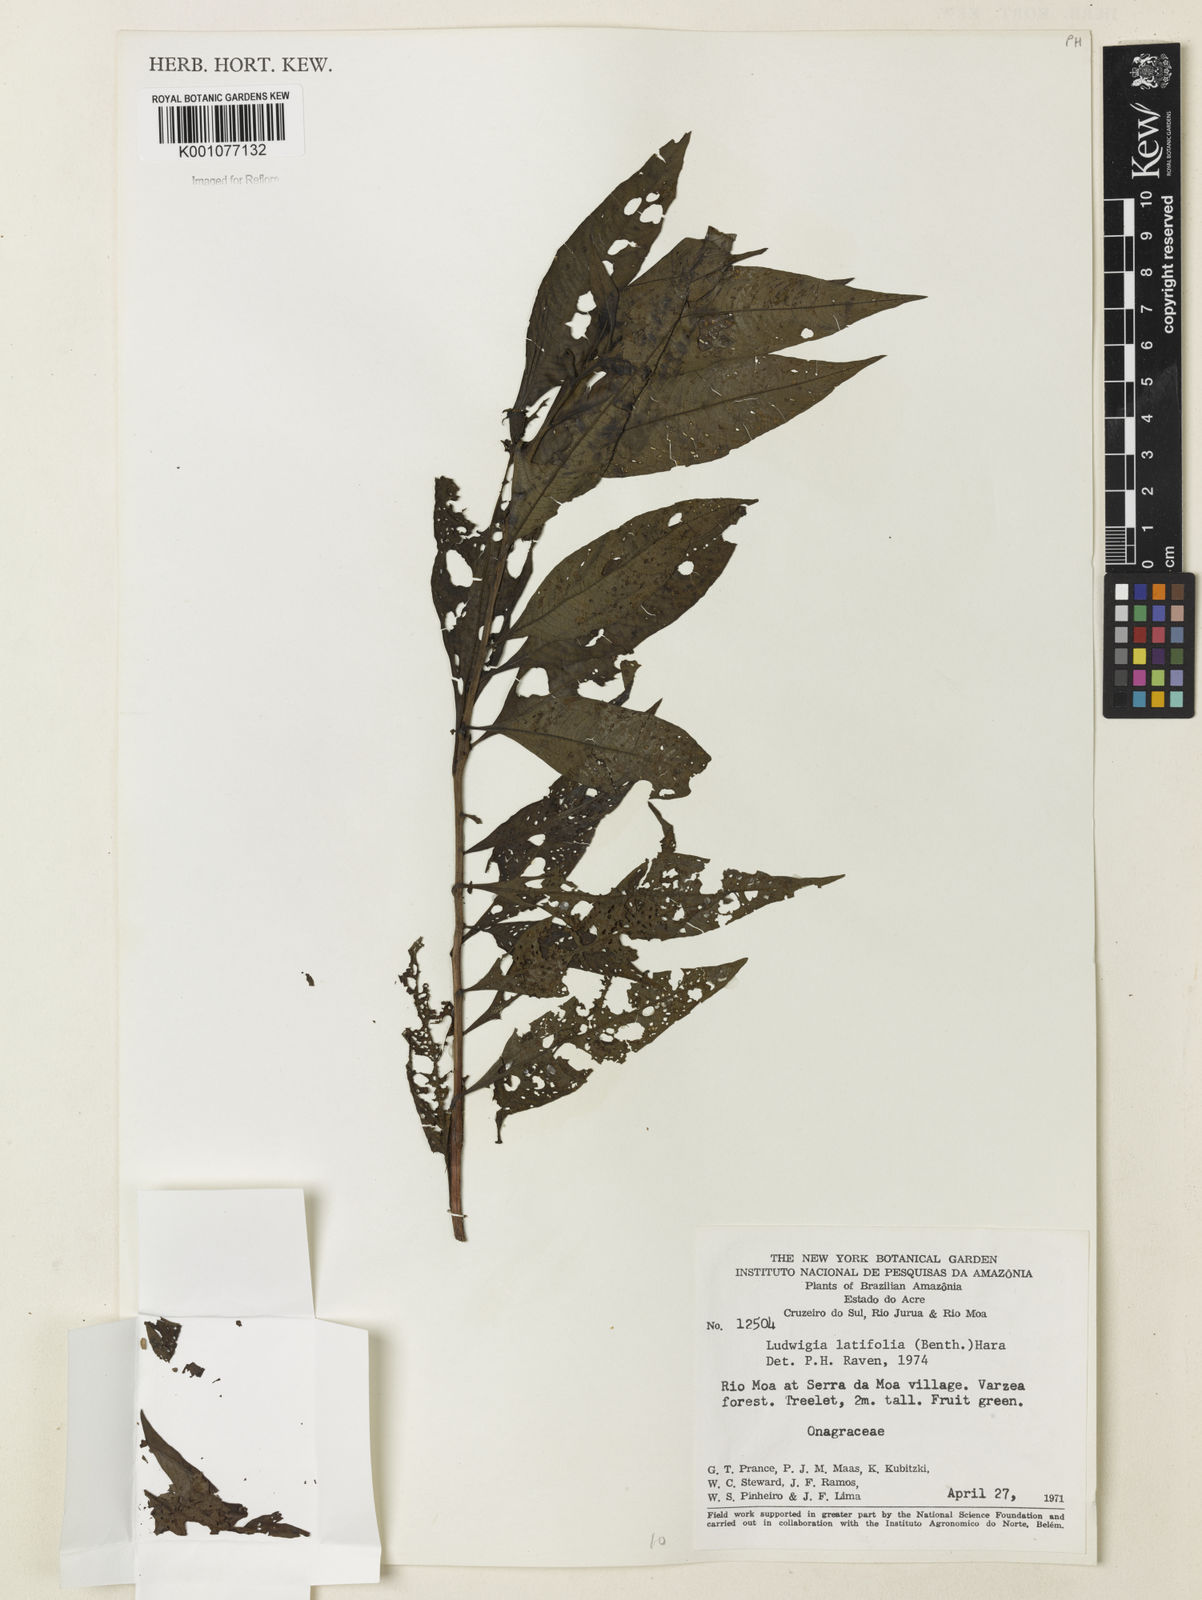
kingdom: Plantae
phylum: Tracheophyta
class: Magnoliopsida
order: Myrtales
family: Onagraceae
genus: Ludwigia
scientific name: Ludwigia latifolia
